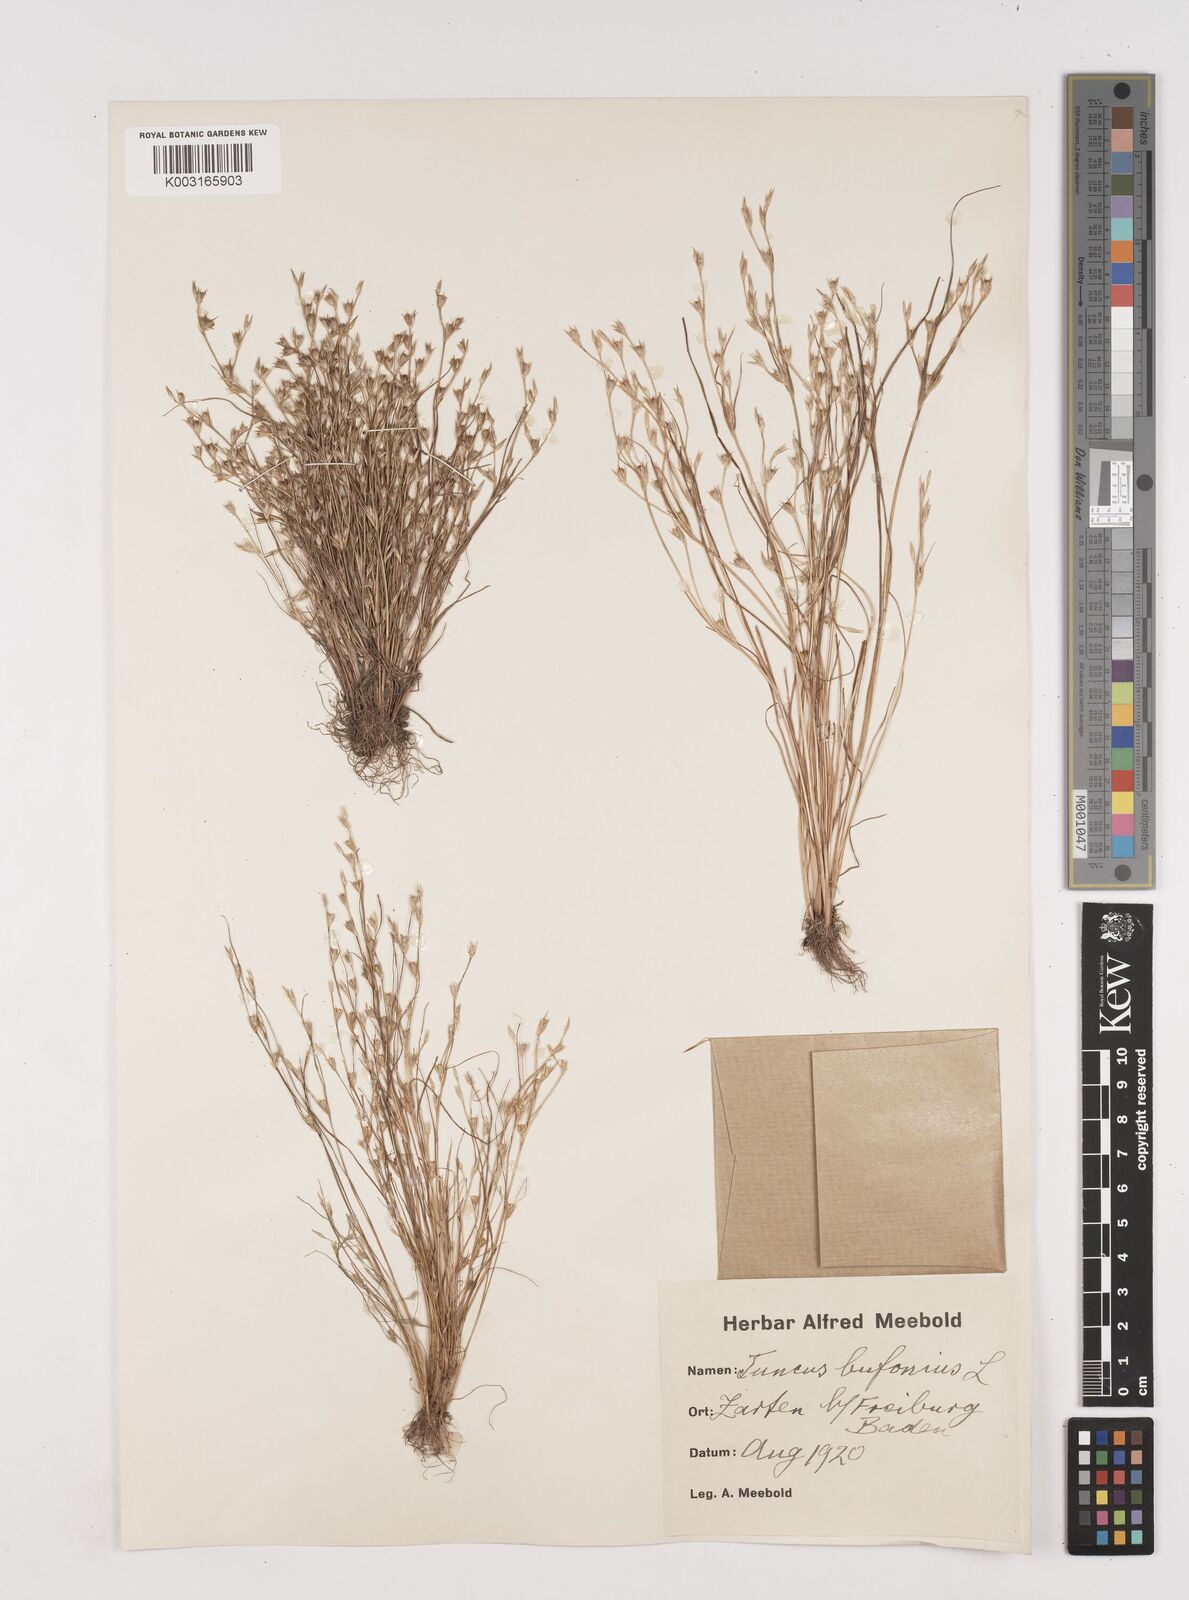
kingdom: Plantae
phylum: Tracheophyta
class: Liliopsida
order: Poales
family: Juncaceae
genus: Juncus
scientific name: Juncus bufonius
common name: Toad rush
